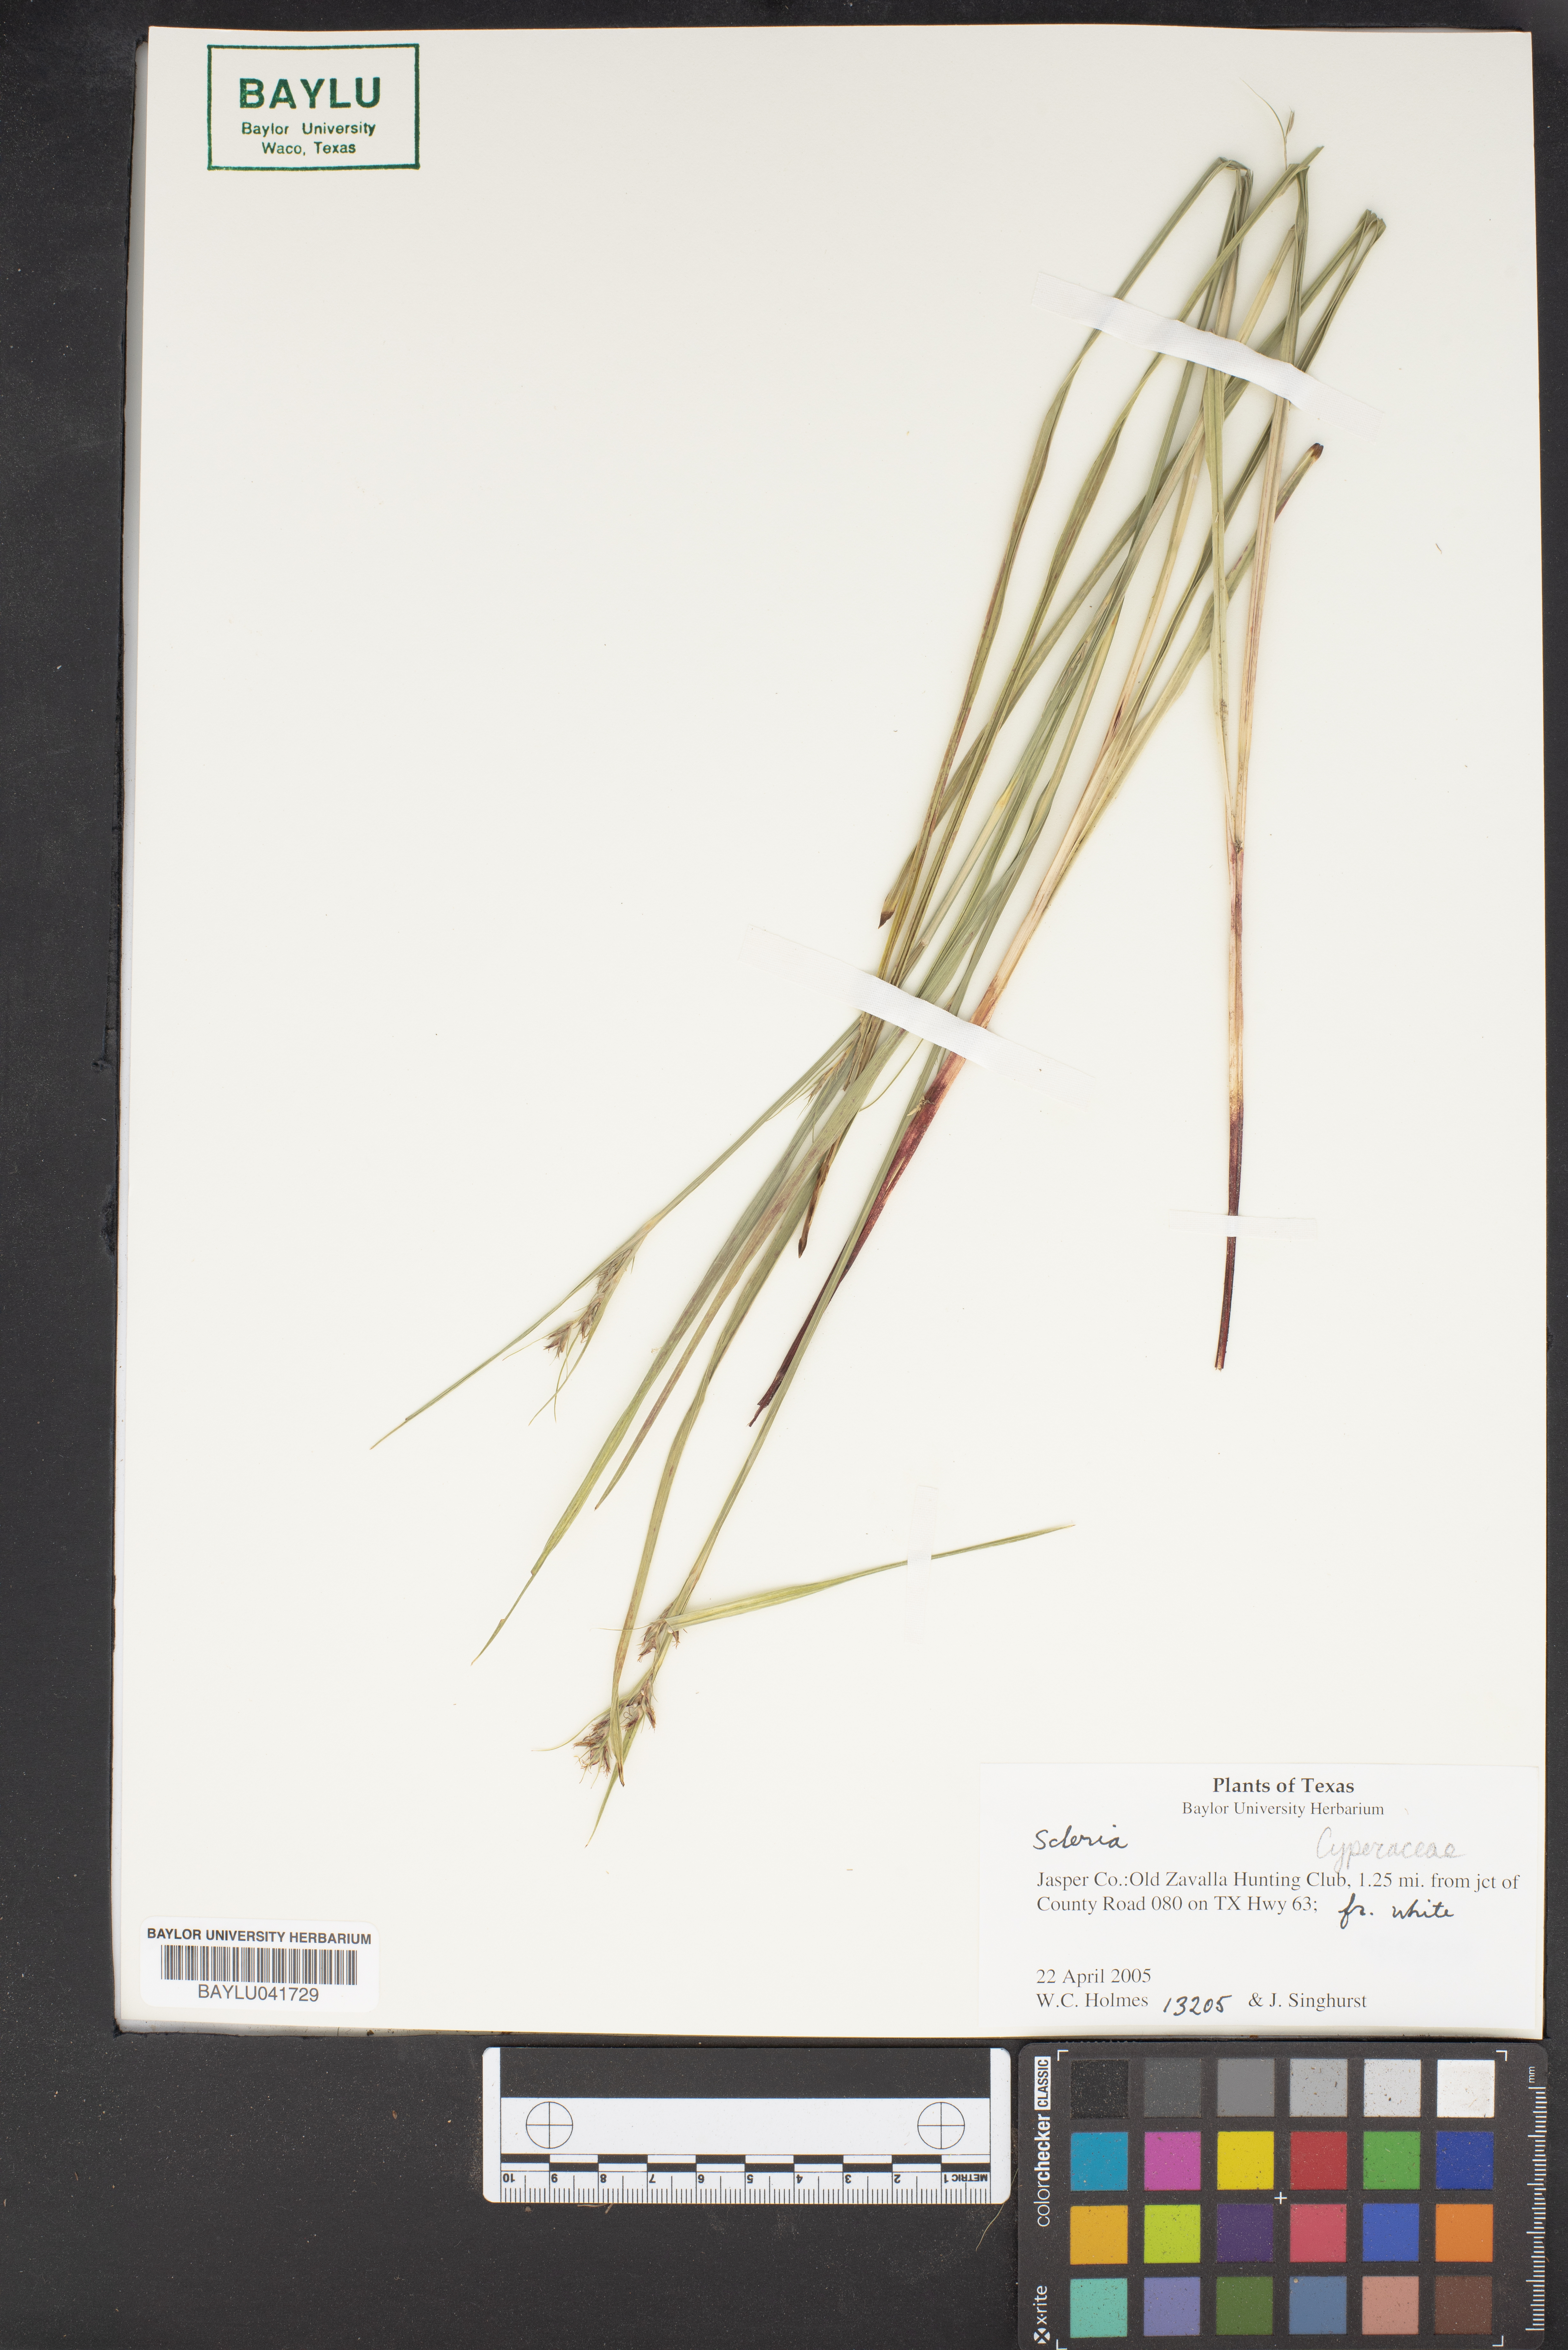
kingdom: Plantae
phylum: Tracheophyta
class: Liliopsida
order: Poales
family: Cyperaceae
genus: Scleria
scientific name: Scleria
